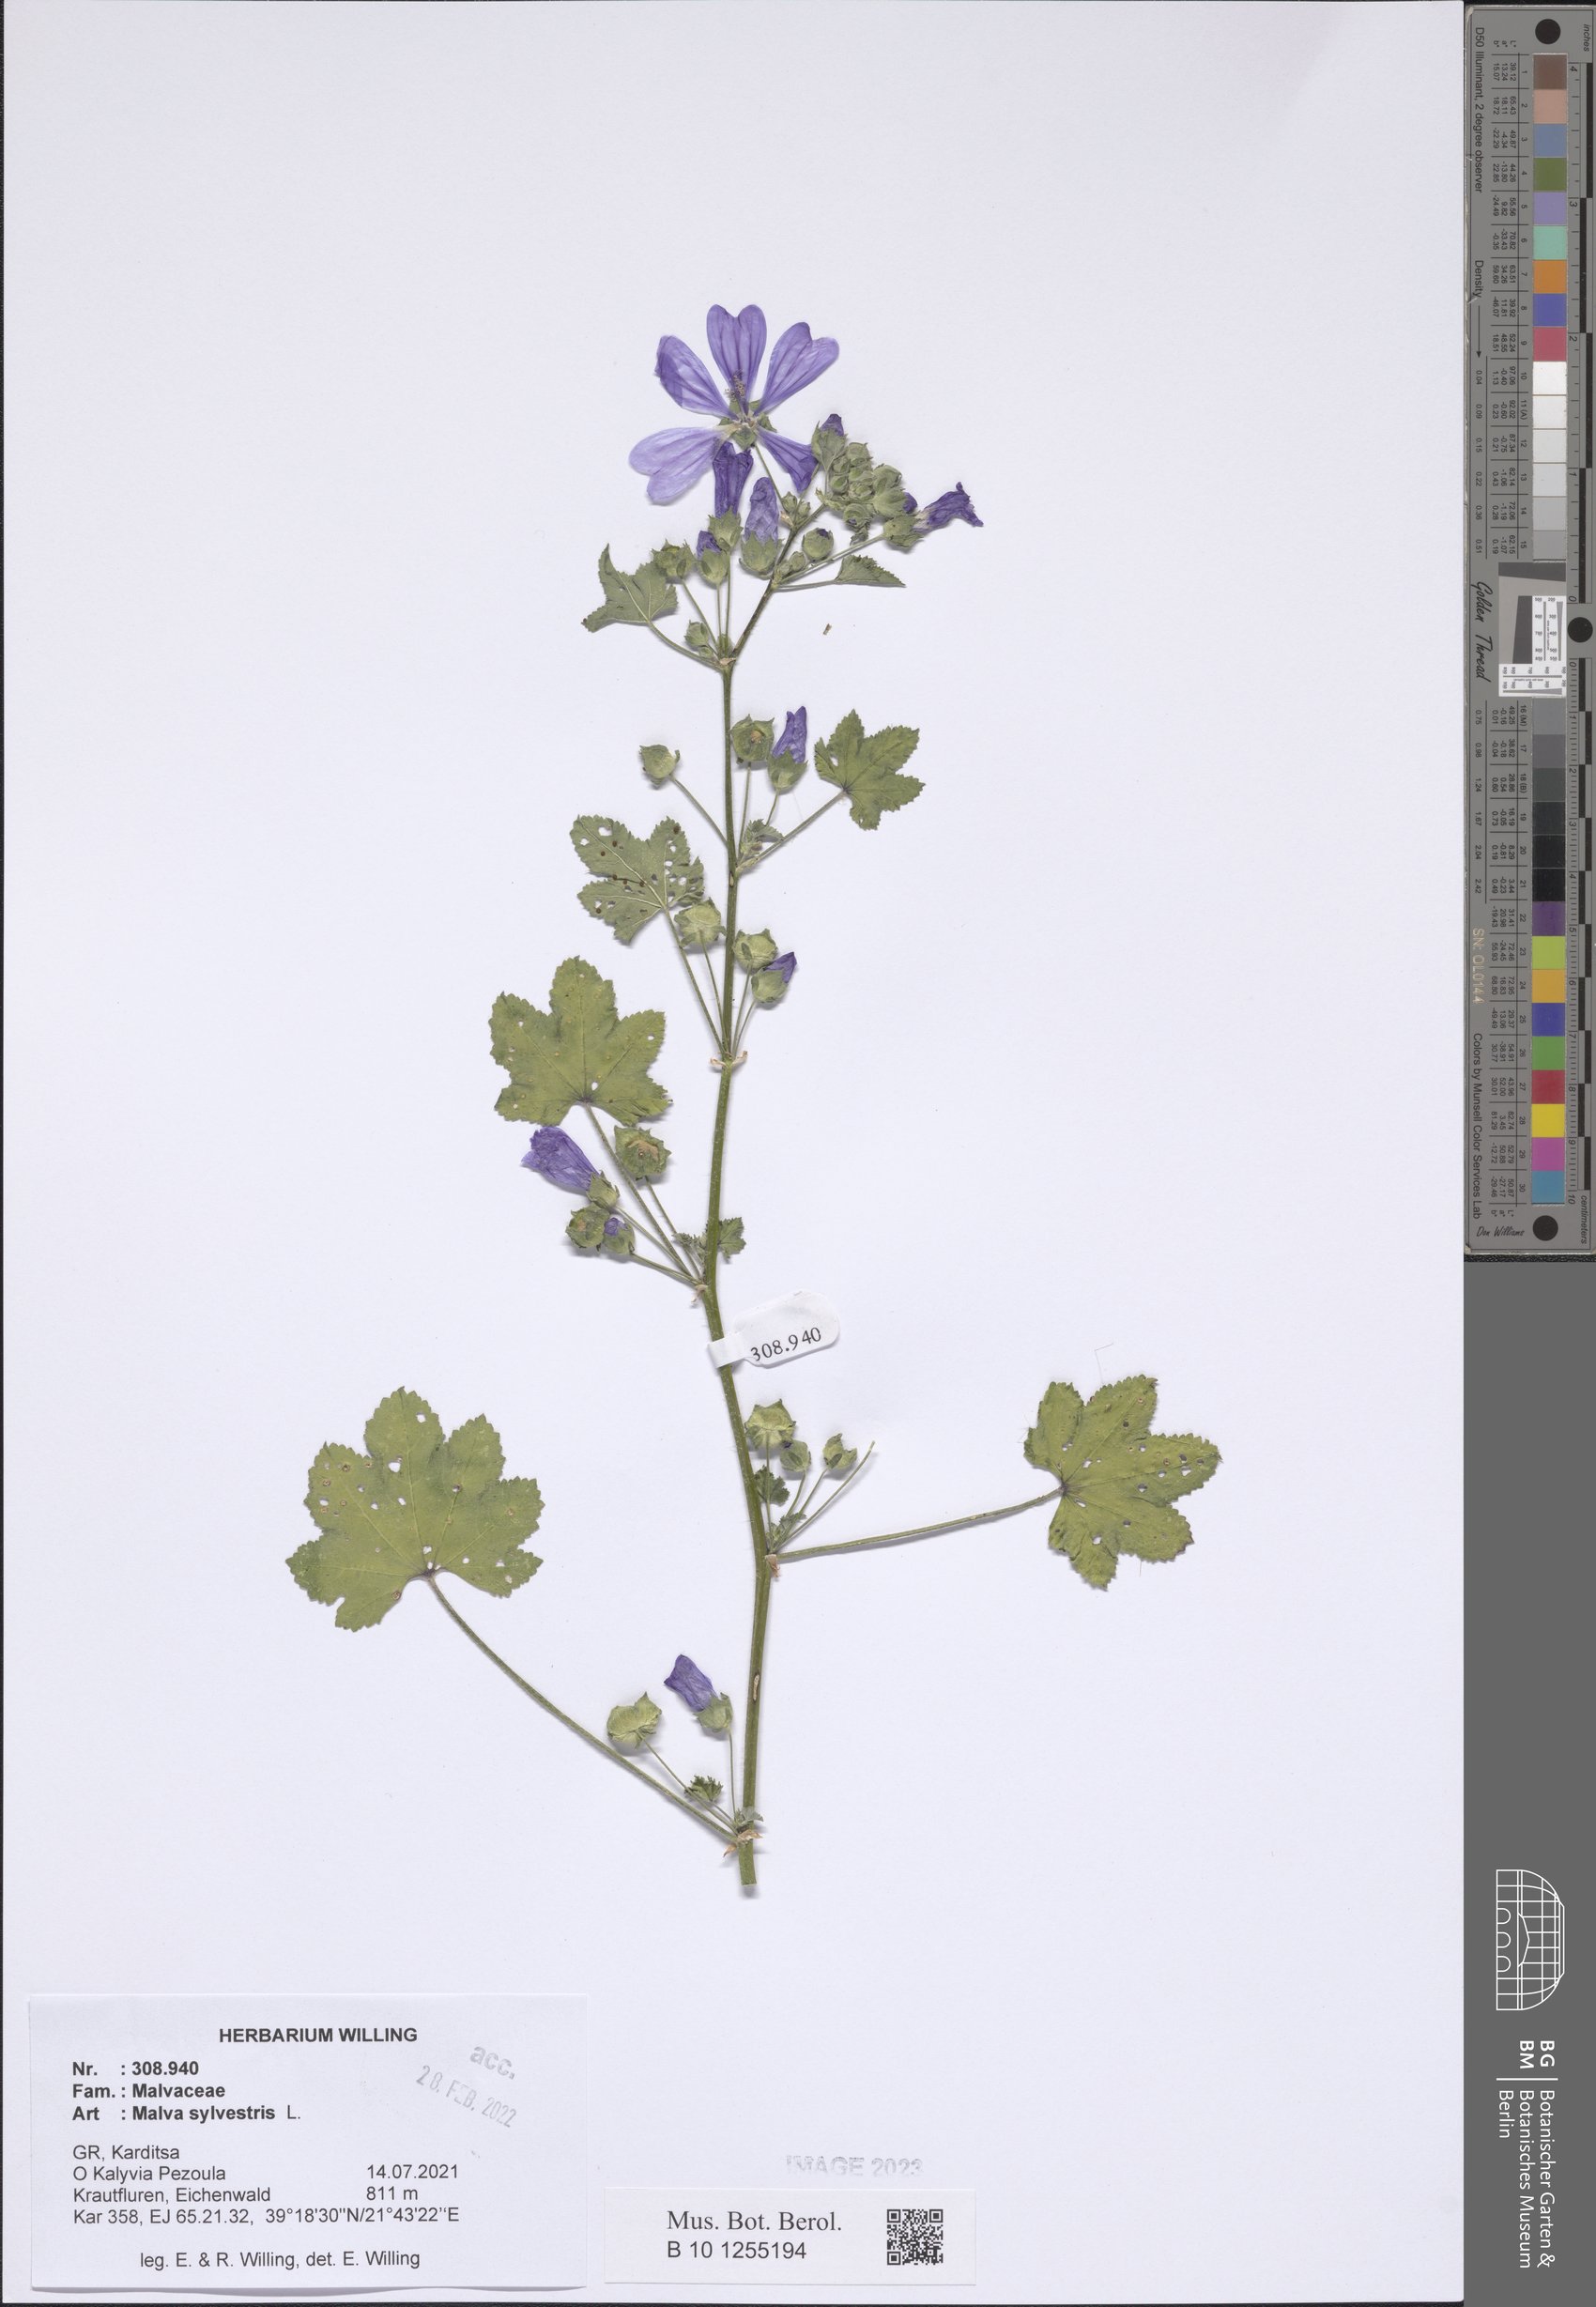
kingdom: Plantae
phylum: Tracheophyta
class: Magnoliopsida
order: Malvales
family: Malvaceae
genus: Malva
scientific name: Malva sylvestris
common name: Common mallow
